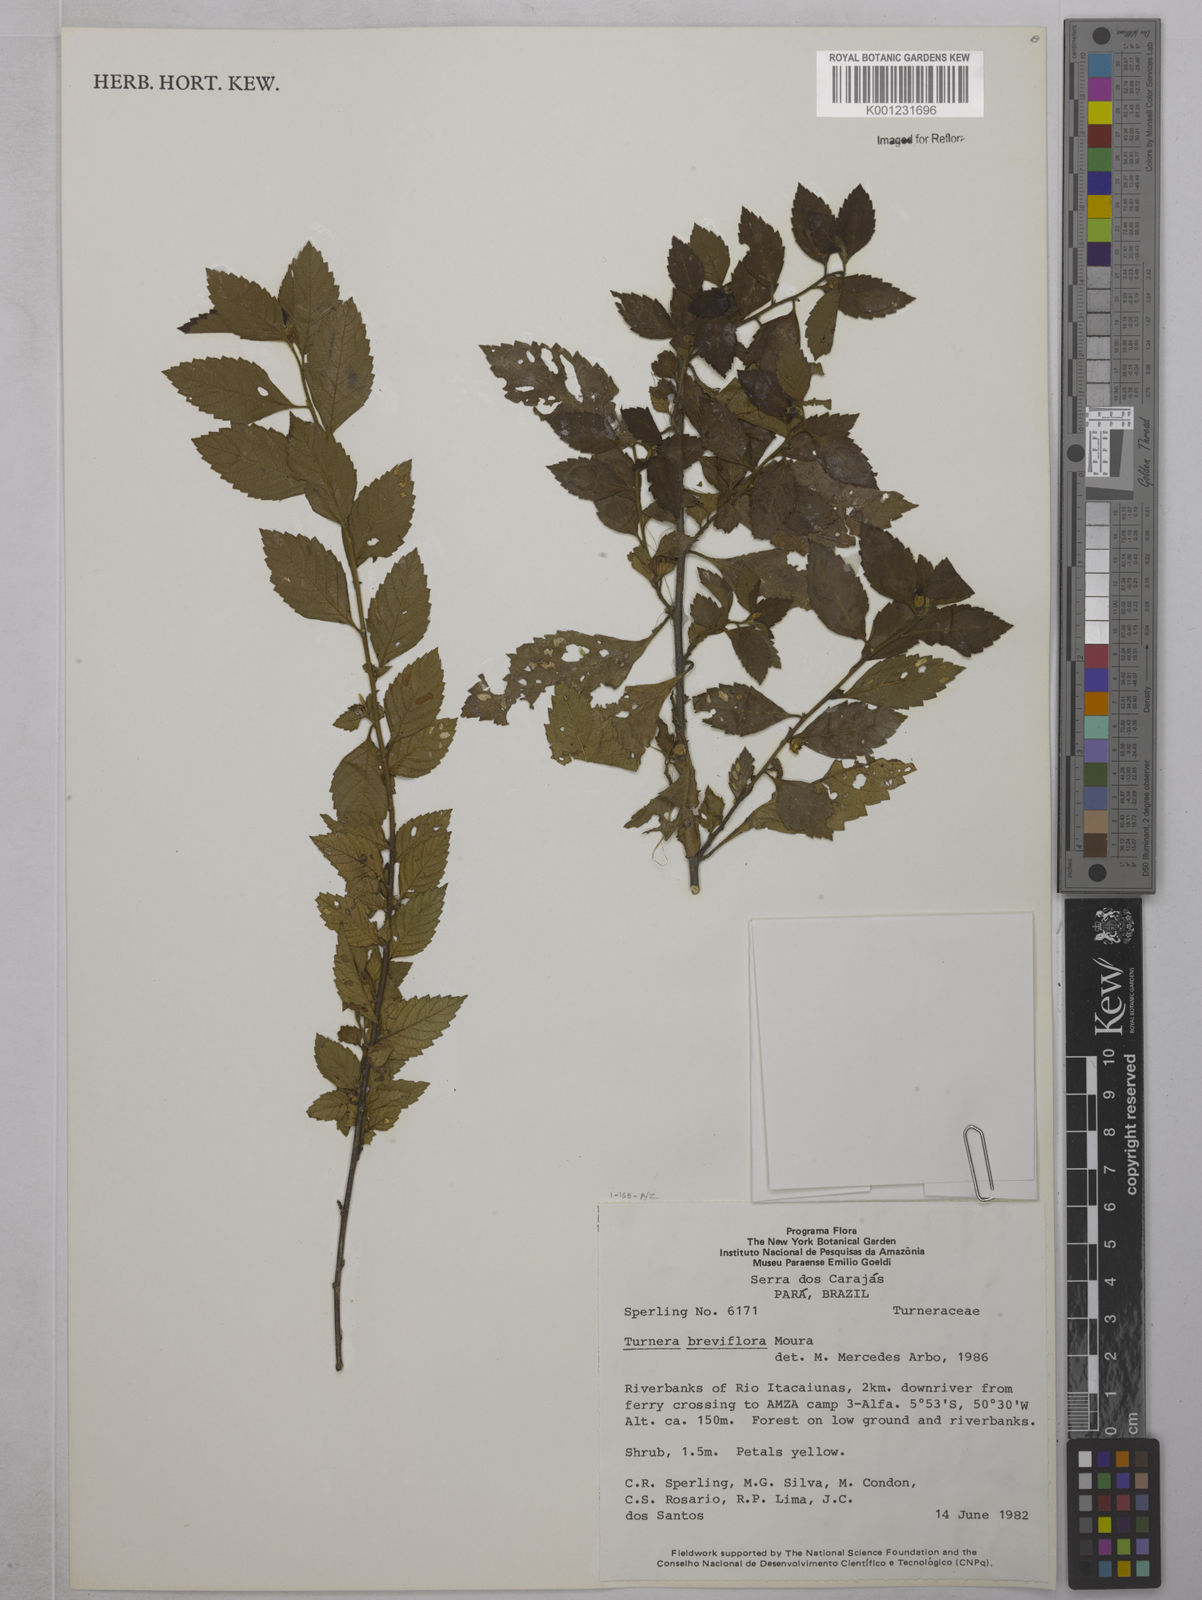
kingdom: Plantae
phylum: Tracheophyta
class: Magnoliopsida
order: Malpighiales
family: Turneraceae
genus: Turnera
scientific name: Turnera breviflora
